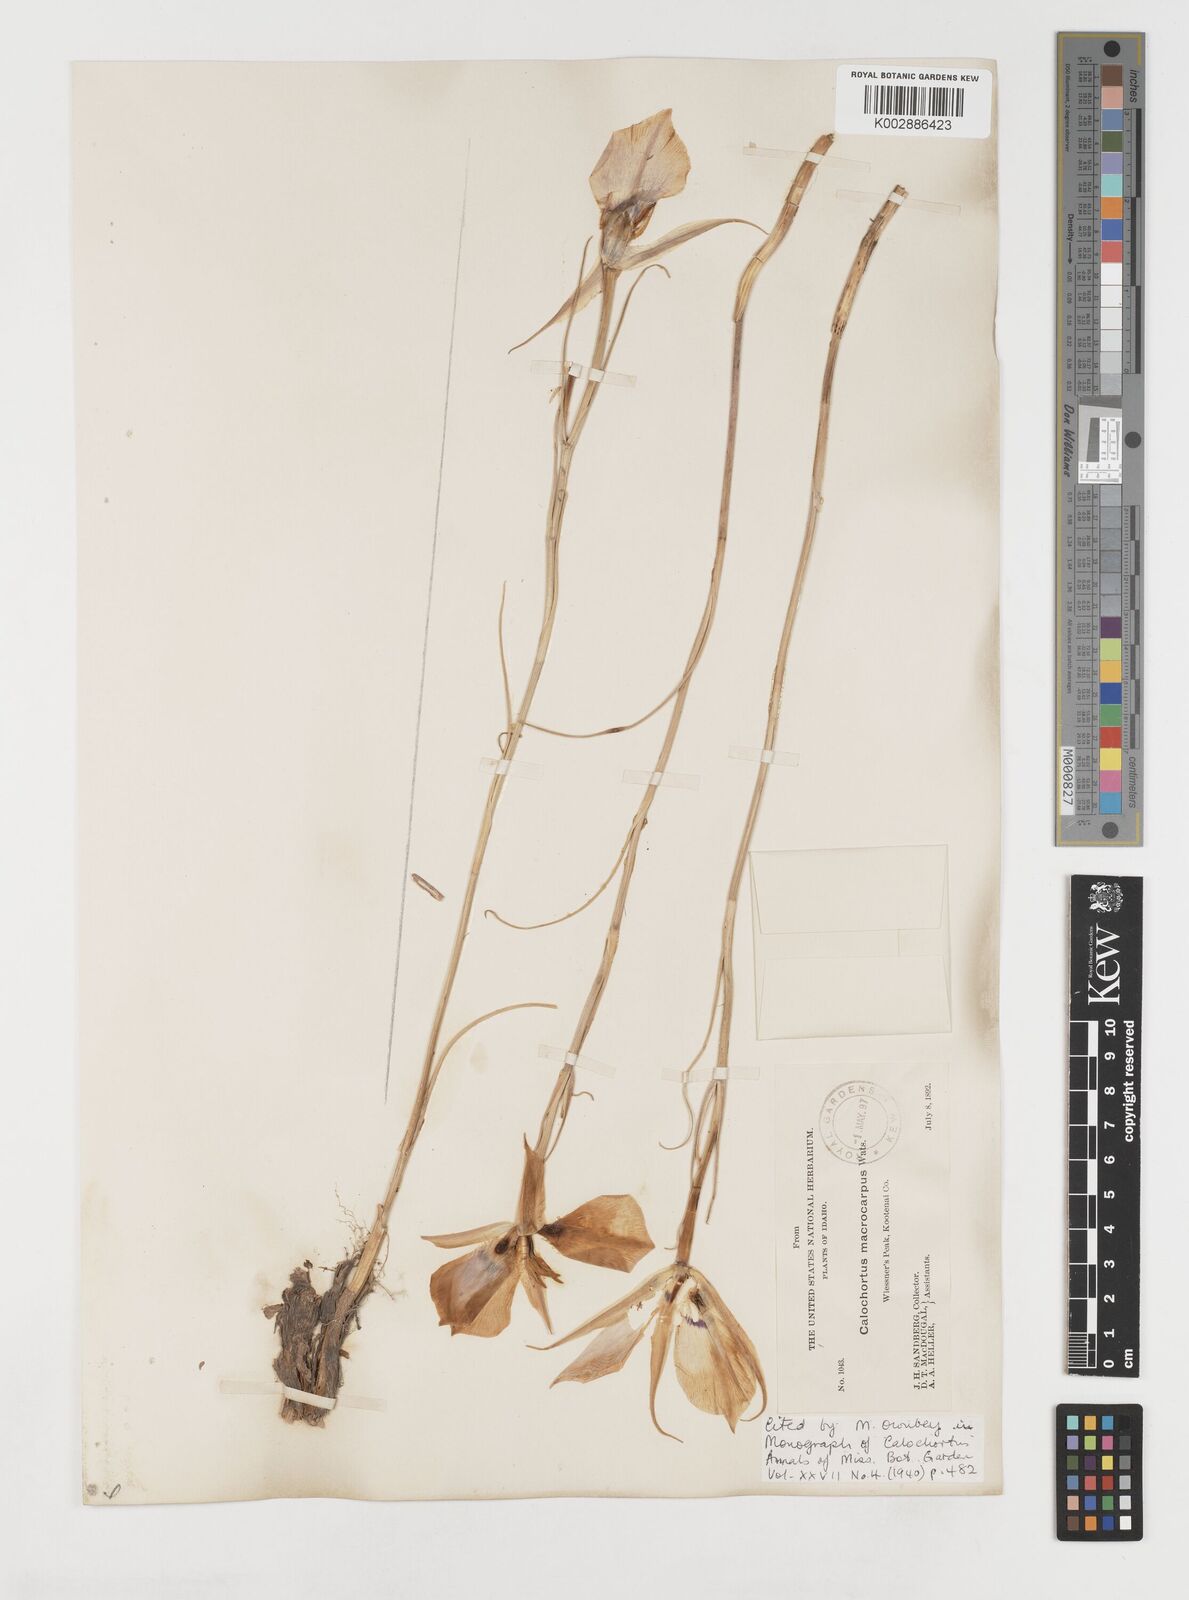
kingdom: Plantae
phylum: Tracheophyta
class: Liliopsida
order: Liliales
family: Liliaceae
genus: Calochortus
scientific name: Calochortus macrocarpus
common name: Green-band mariposa lily
